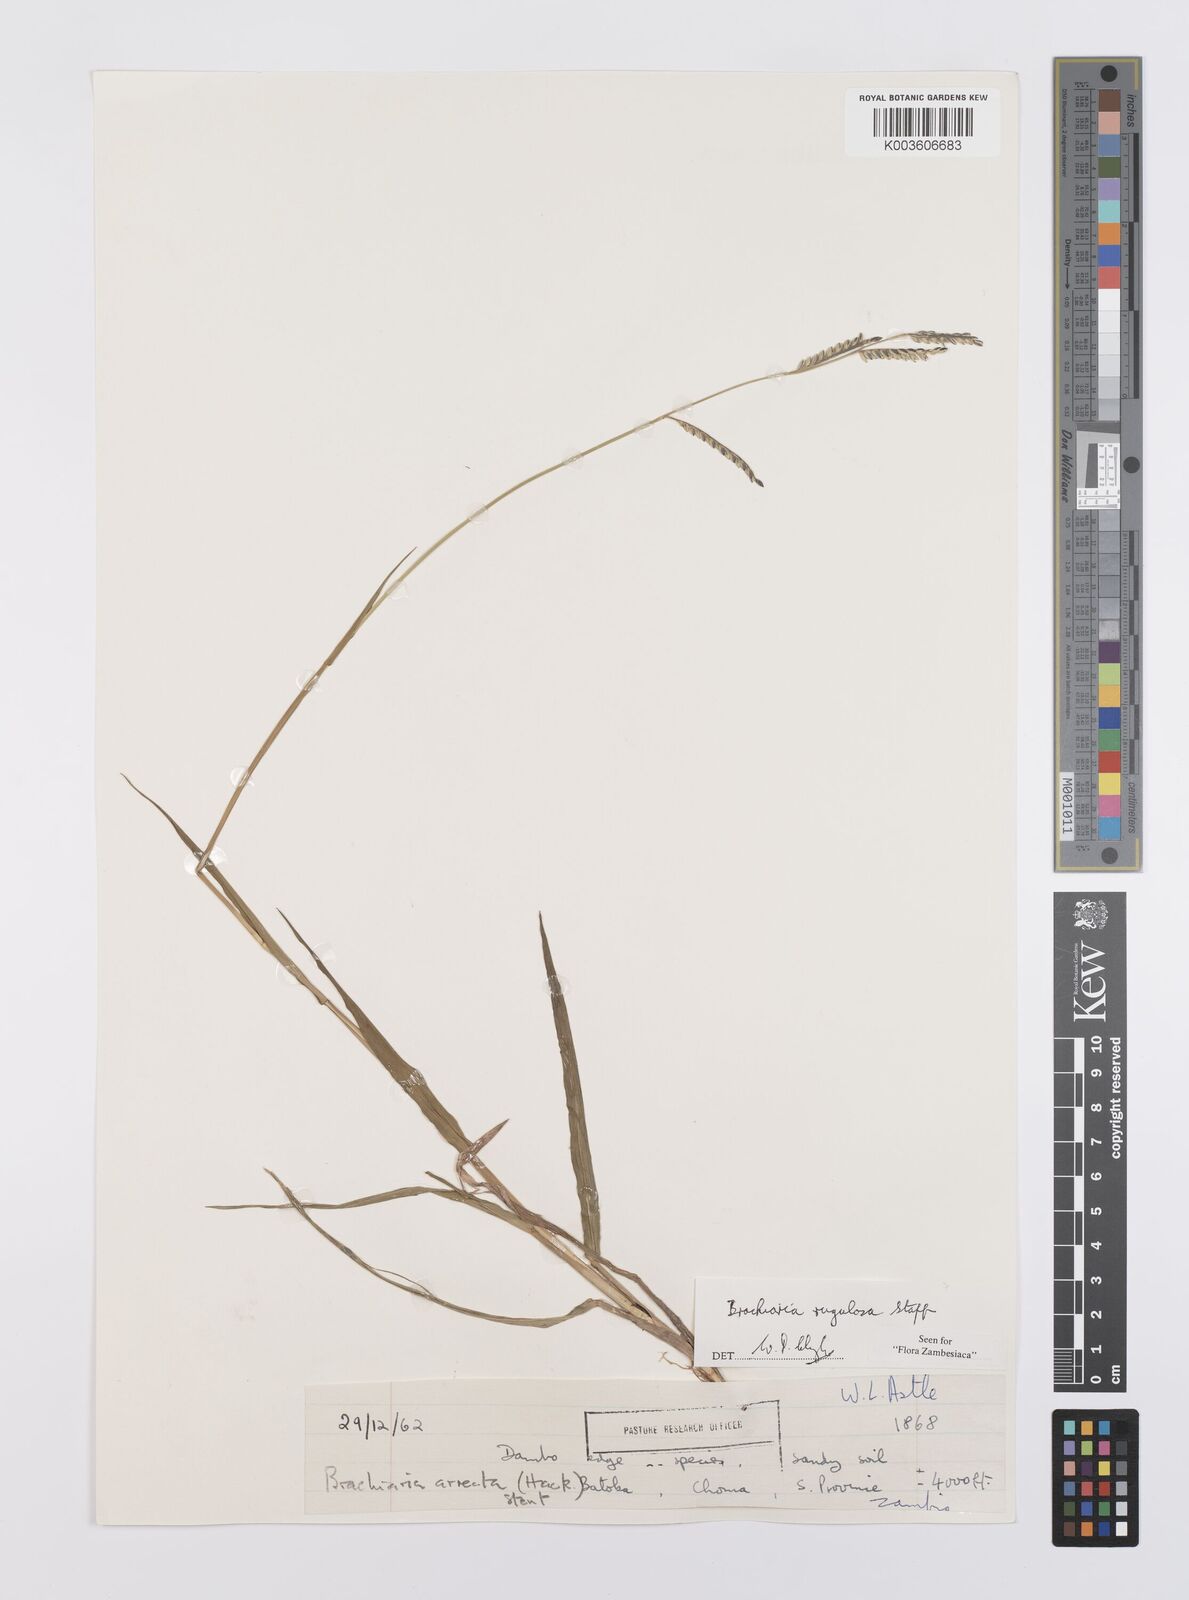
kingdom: Plantae
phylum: Tracheophyta
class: Liliopsida
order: Poales
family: Poaceae
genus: Urochloa
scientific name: Urochloa rugulosa
